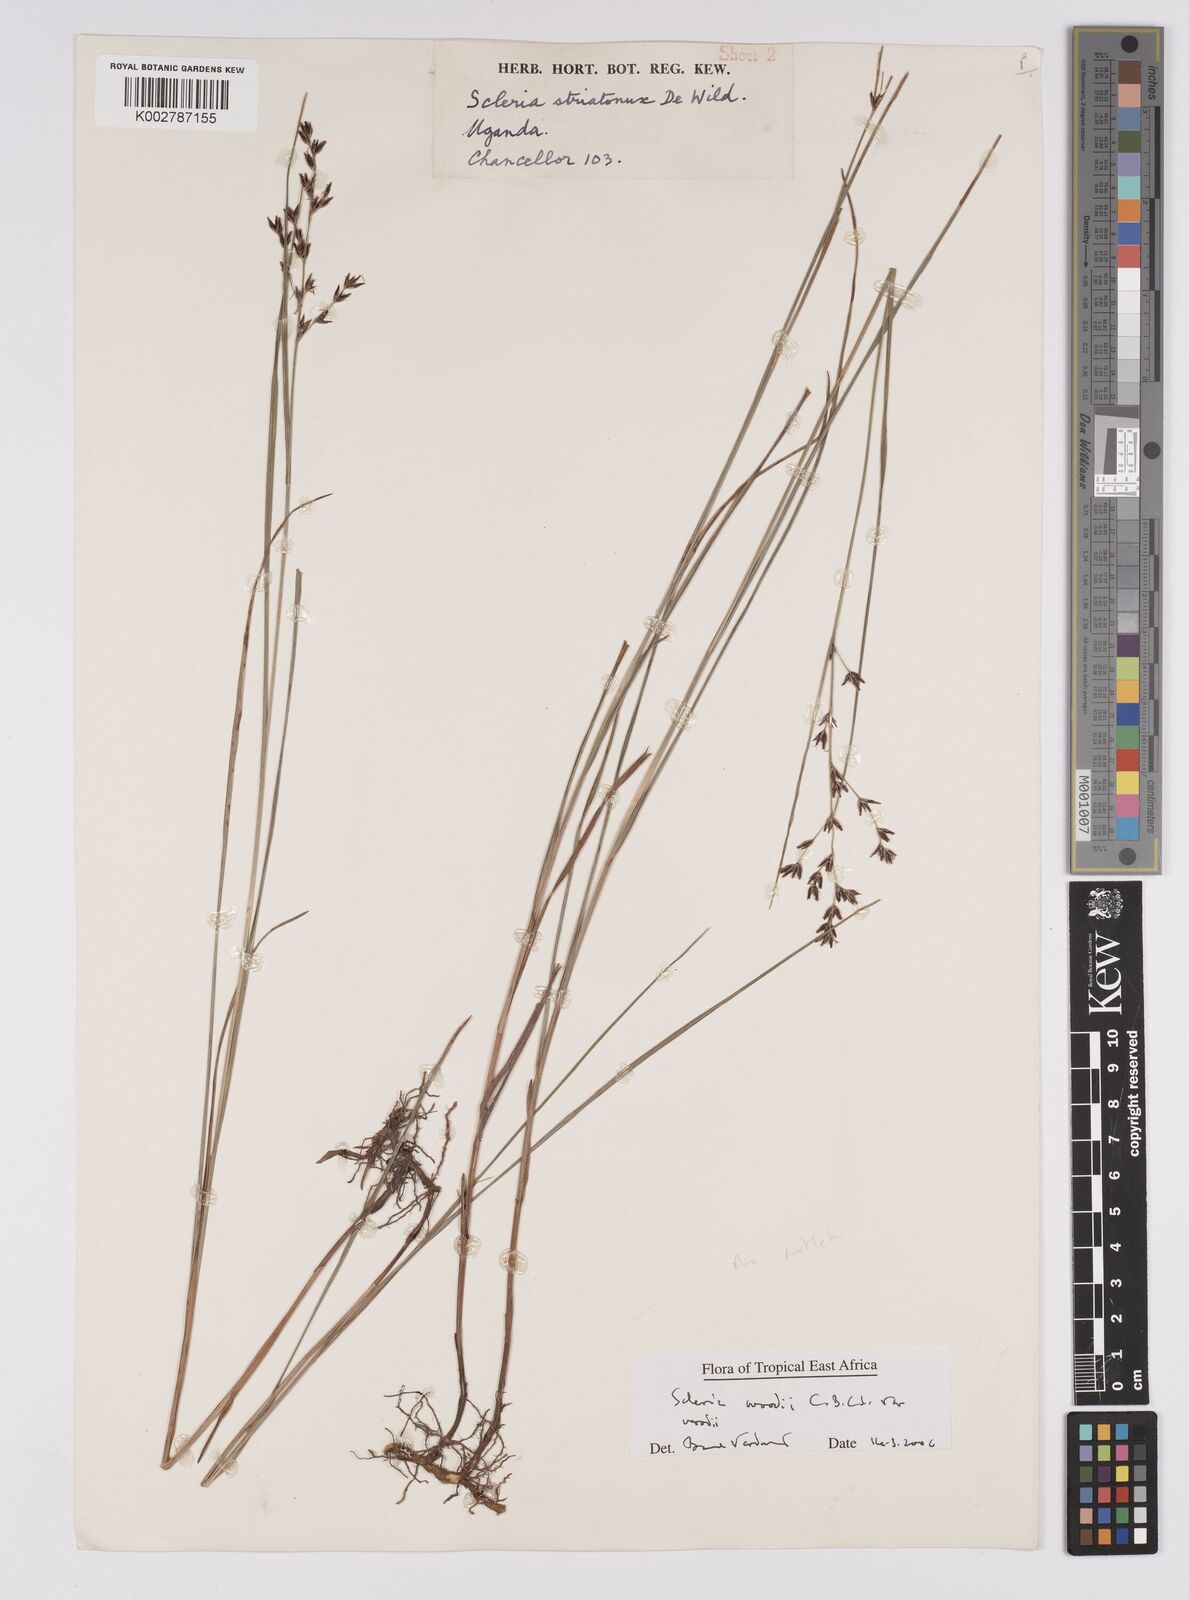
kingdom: Plantae
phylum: Tracheophyta
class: Liliopsida
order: Poales
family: Cyperaceae
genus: Scleria
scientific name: Scleria woodii
